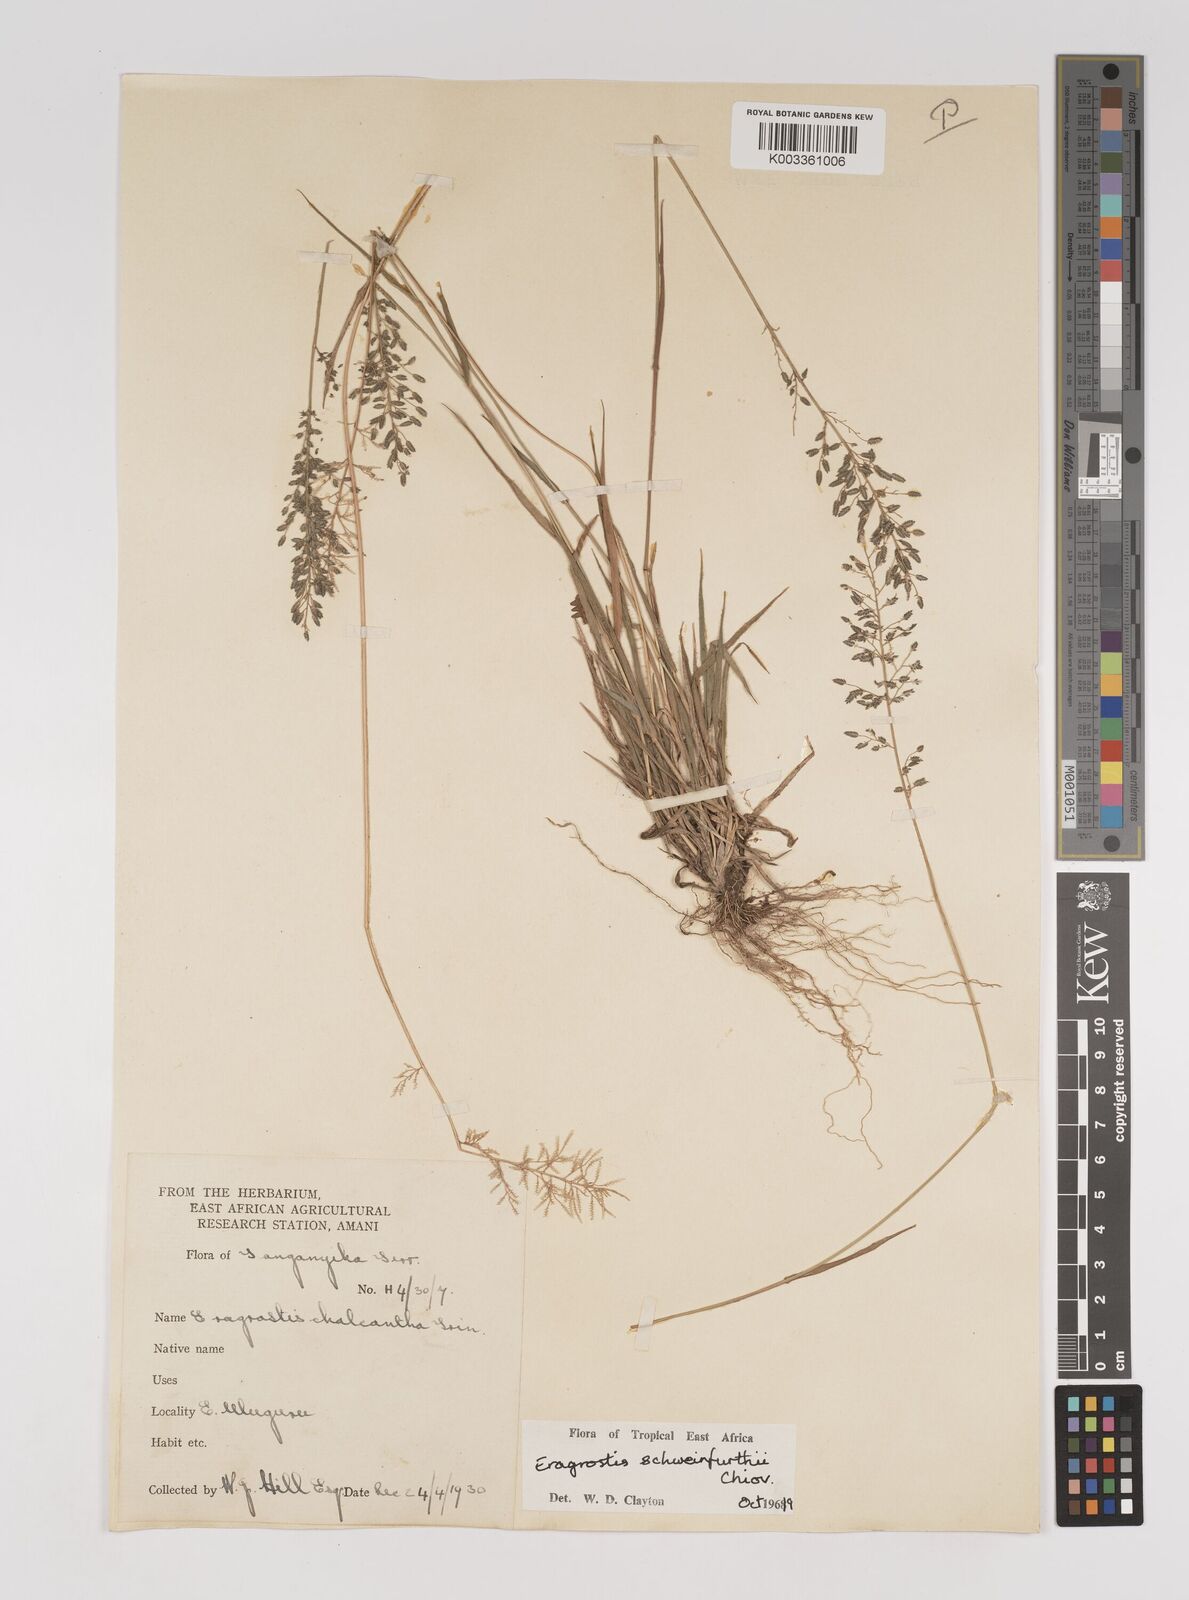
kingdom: Plantae
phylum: Tracheophyta
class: Liliopsida
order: Poales
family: Poaceae
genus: Eragrostis
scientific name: Eragrostis schweinfurthii
